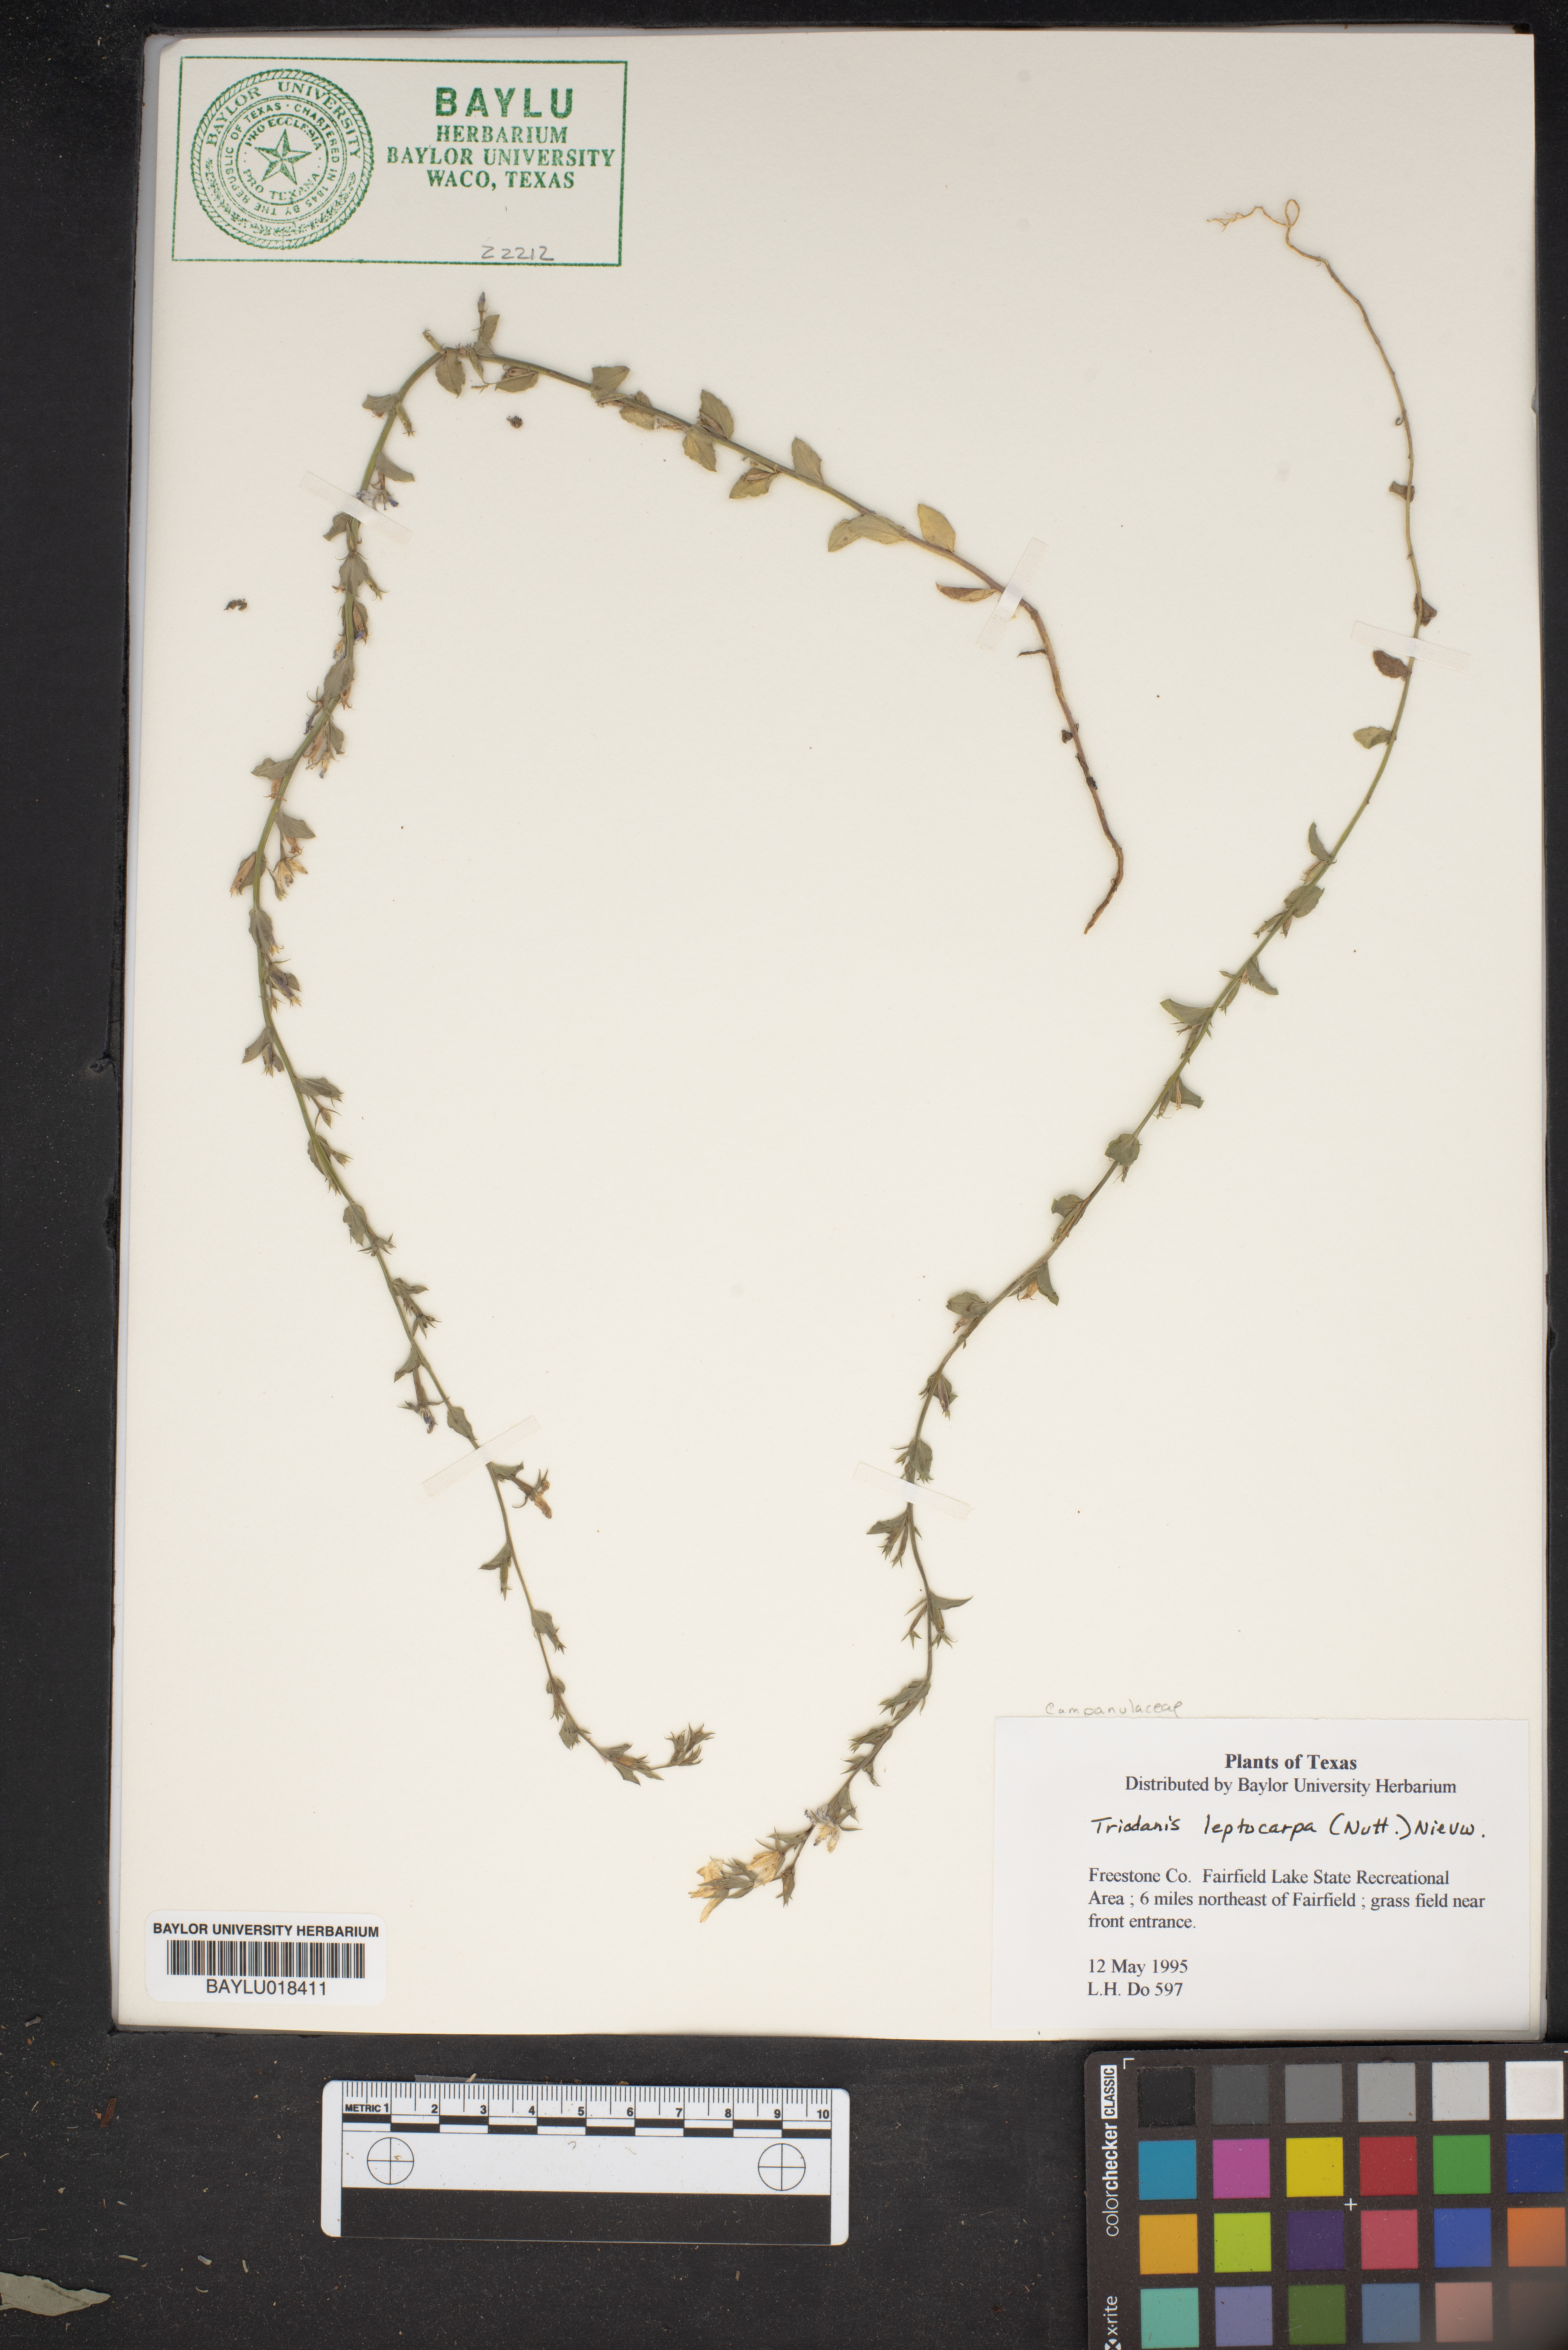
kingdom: Plantae
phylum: Tracheophyta
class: Magnoliopsida
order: Asterales
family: Campanulaceae
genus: Triodanis
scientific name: Triodanis leptocarpa
